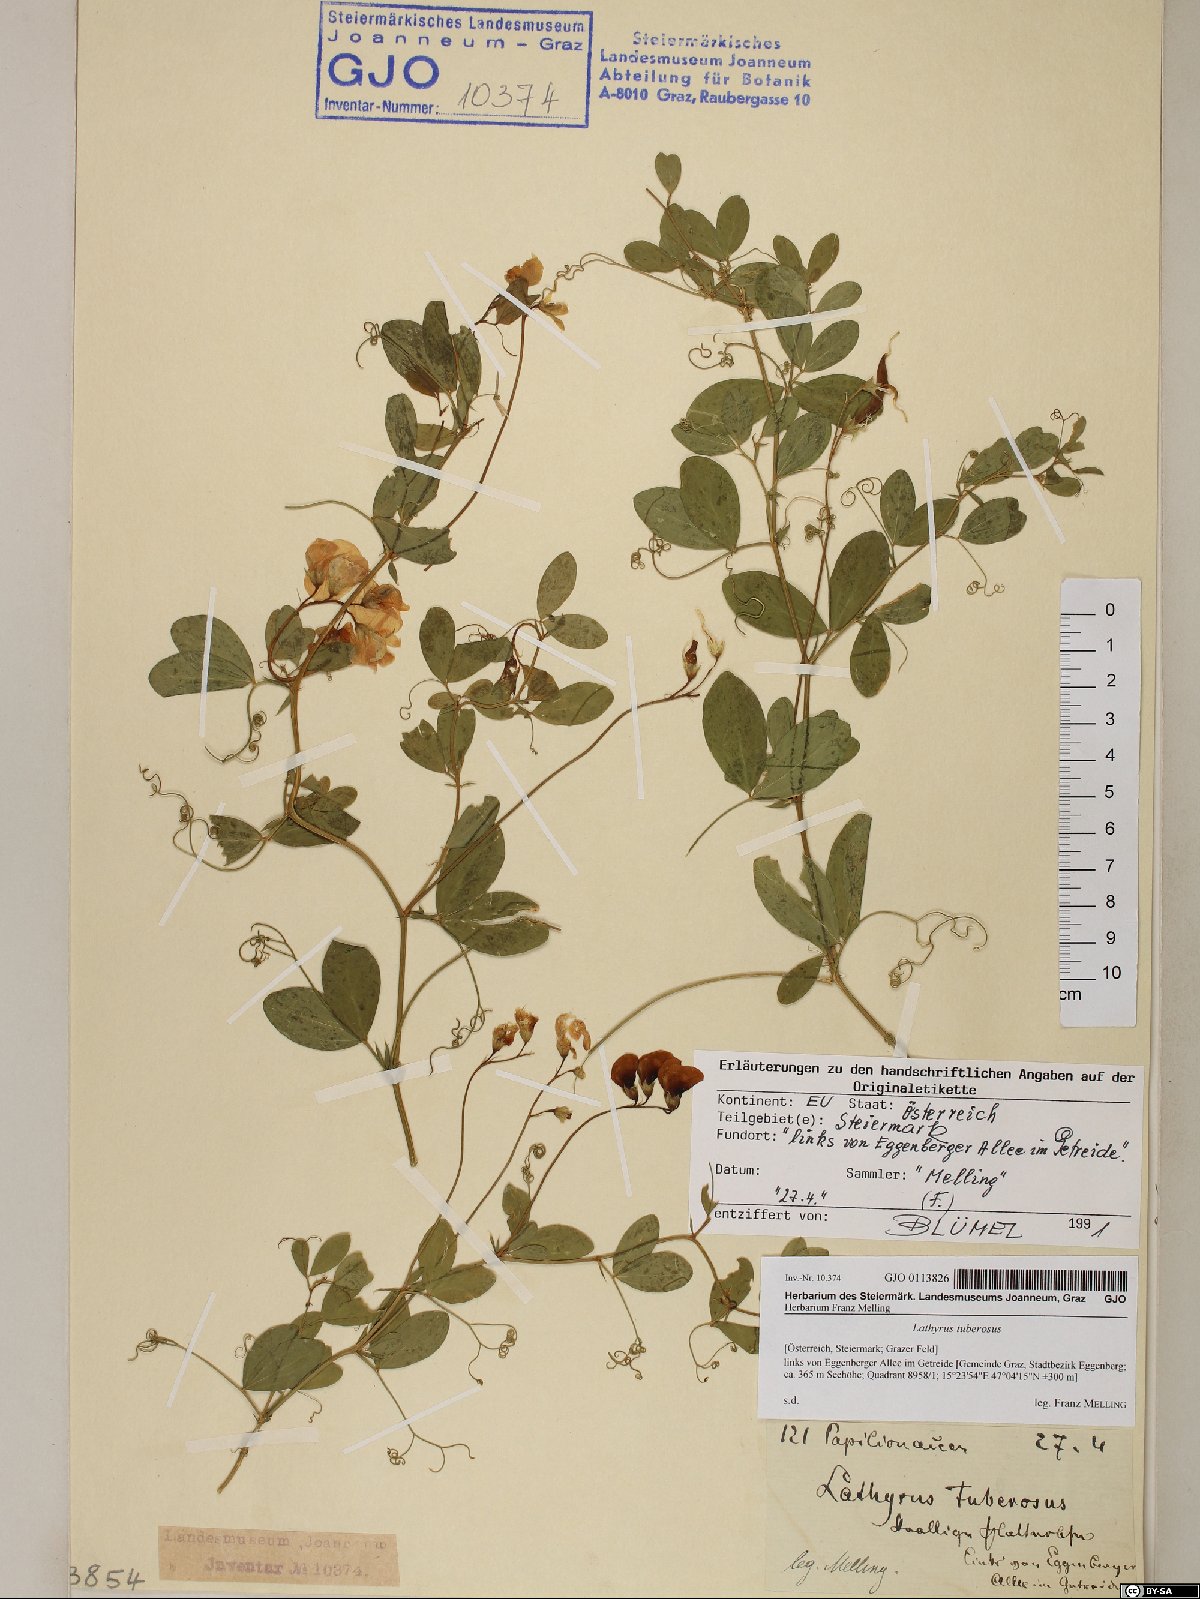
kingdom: Plantae
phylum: Tracheophyta
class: Magnoliopsida
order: Fabales
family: Fabaceae
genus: Lathyrus
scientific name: Lathyrus tuberosus
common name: Tuberous pea
